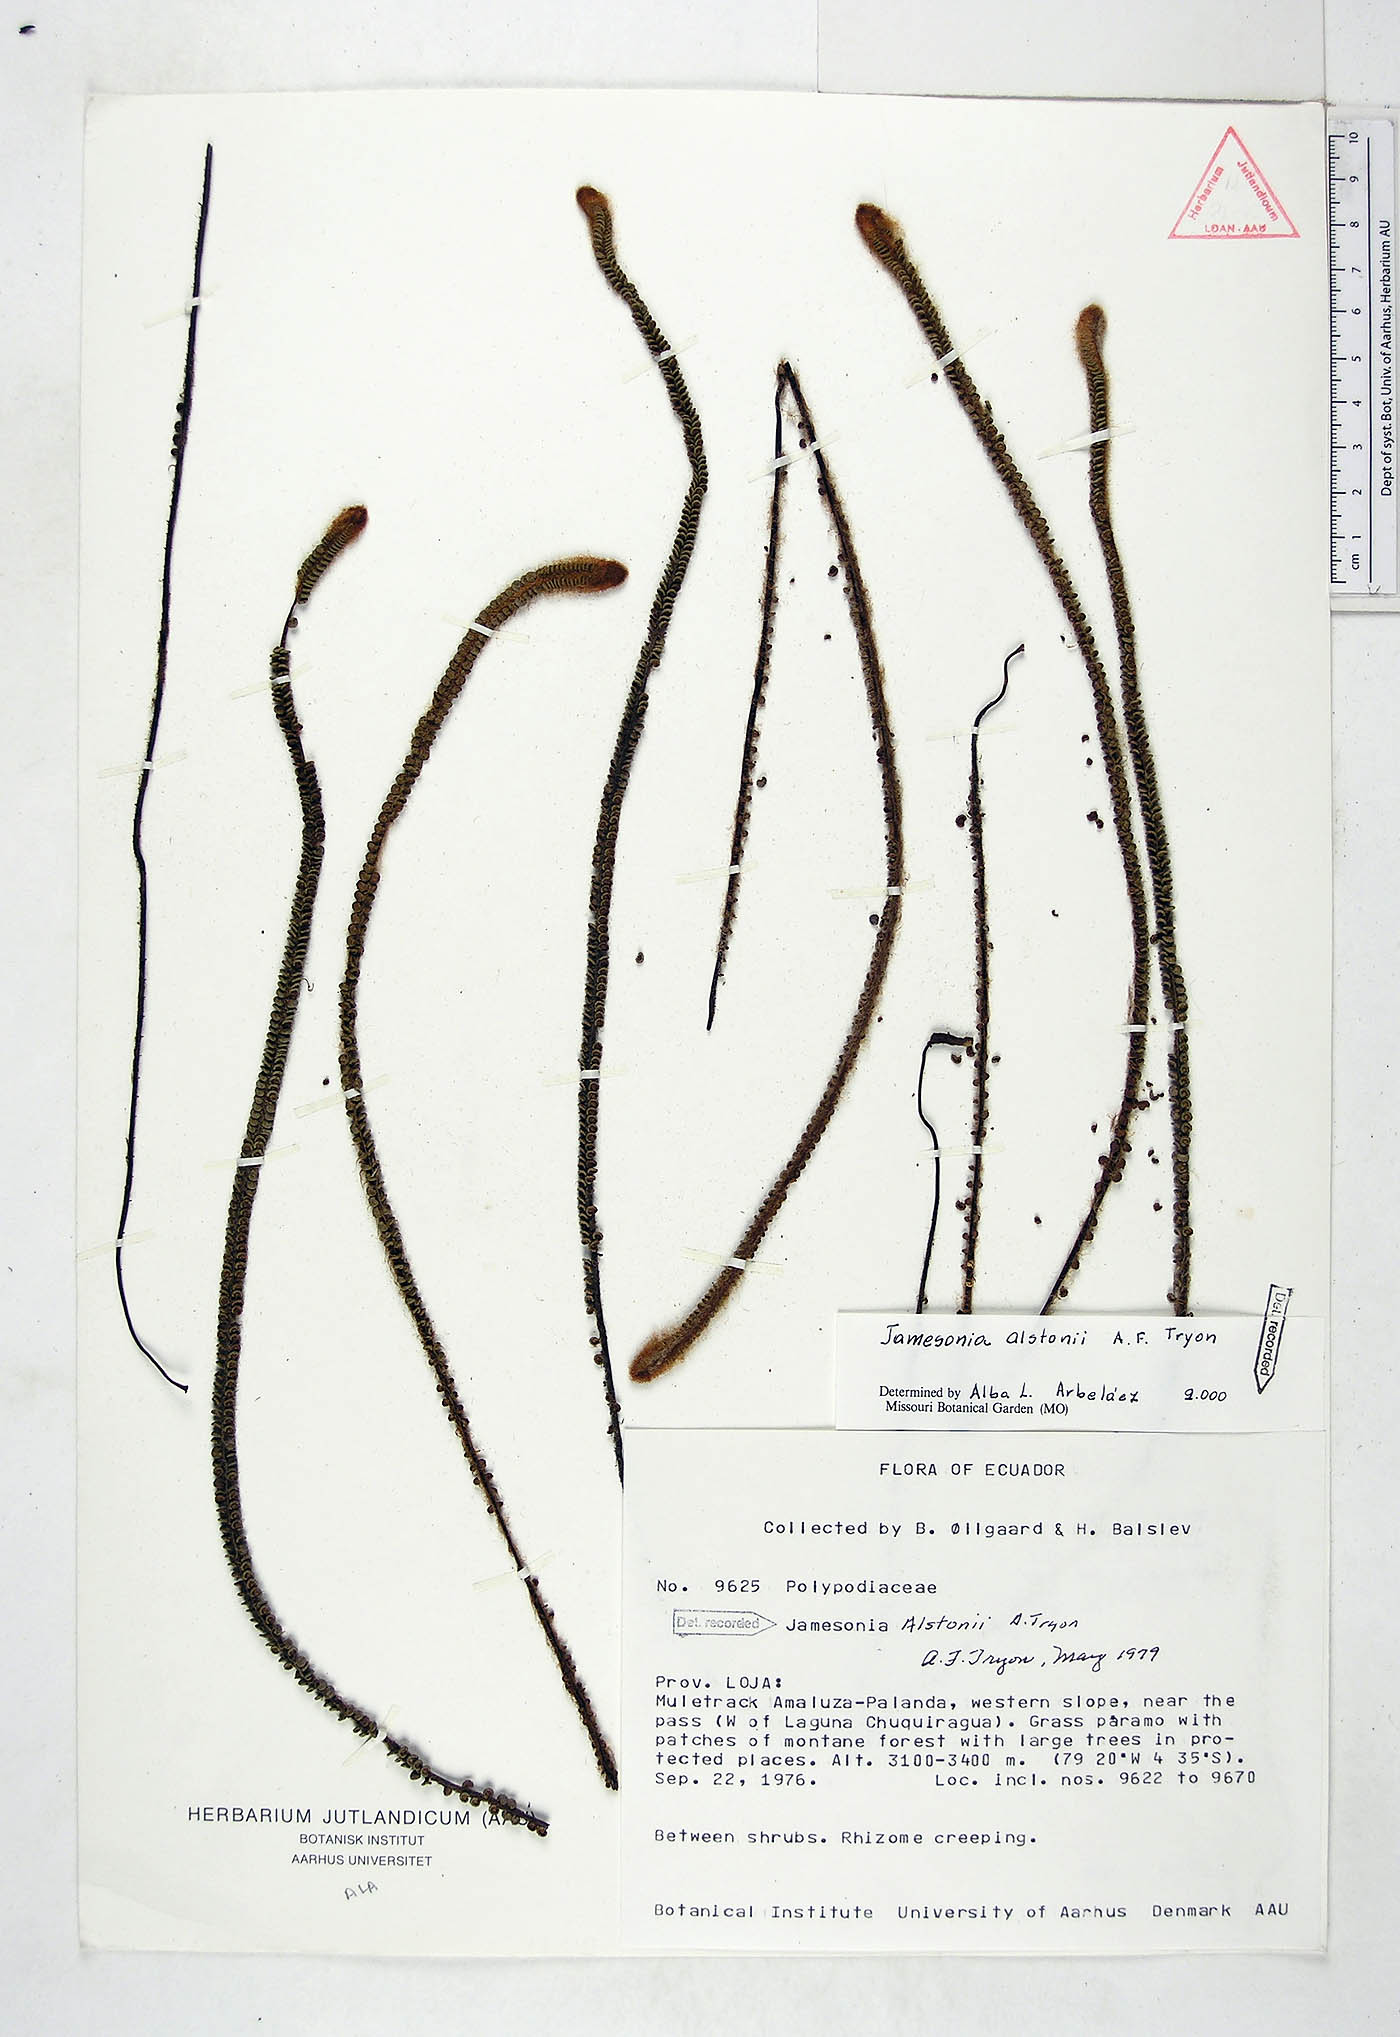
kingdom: Plantae
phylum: Tracheophyta
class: Polypodiopsida
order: Polypodiales
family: Pteridaceae
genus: Jamesonia
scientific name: Jamesonia alstonii
